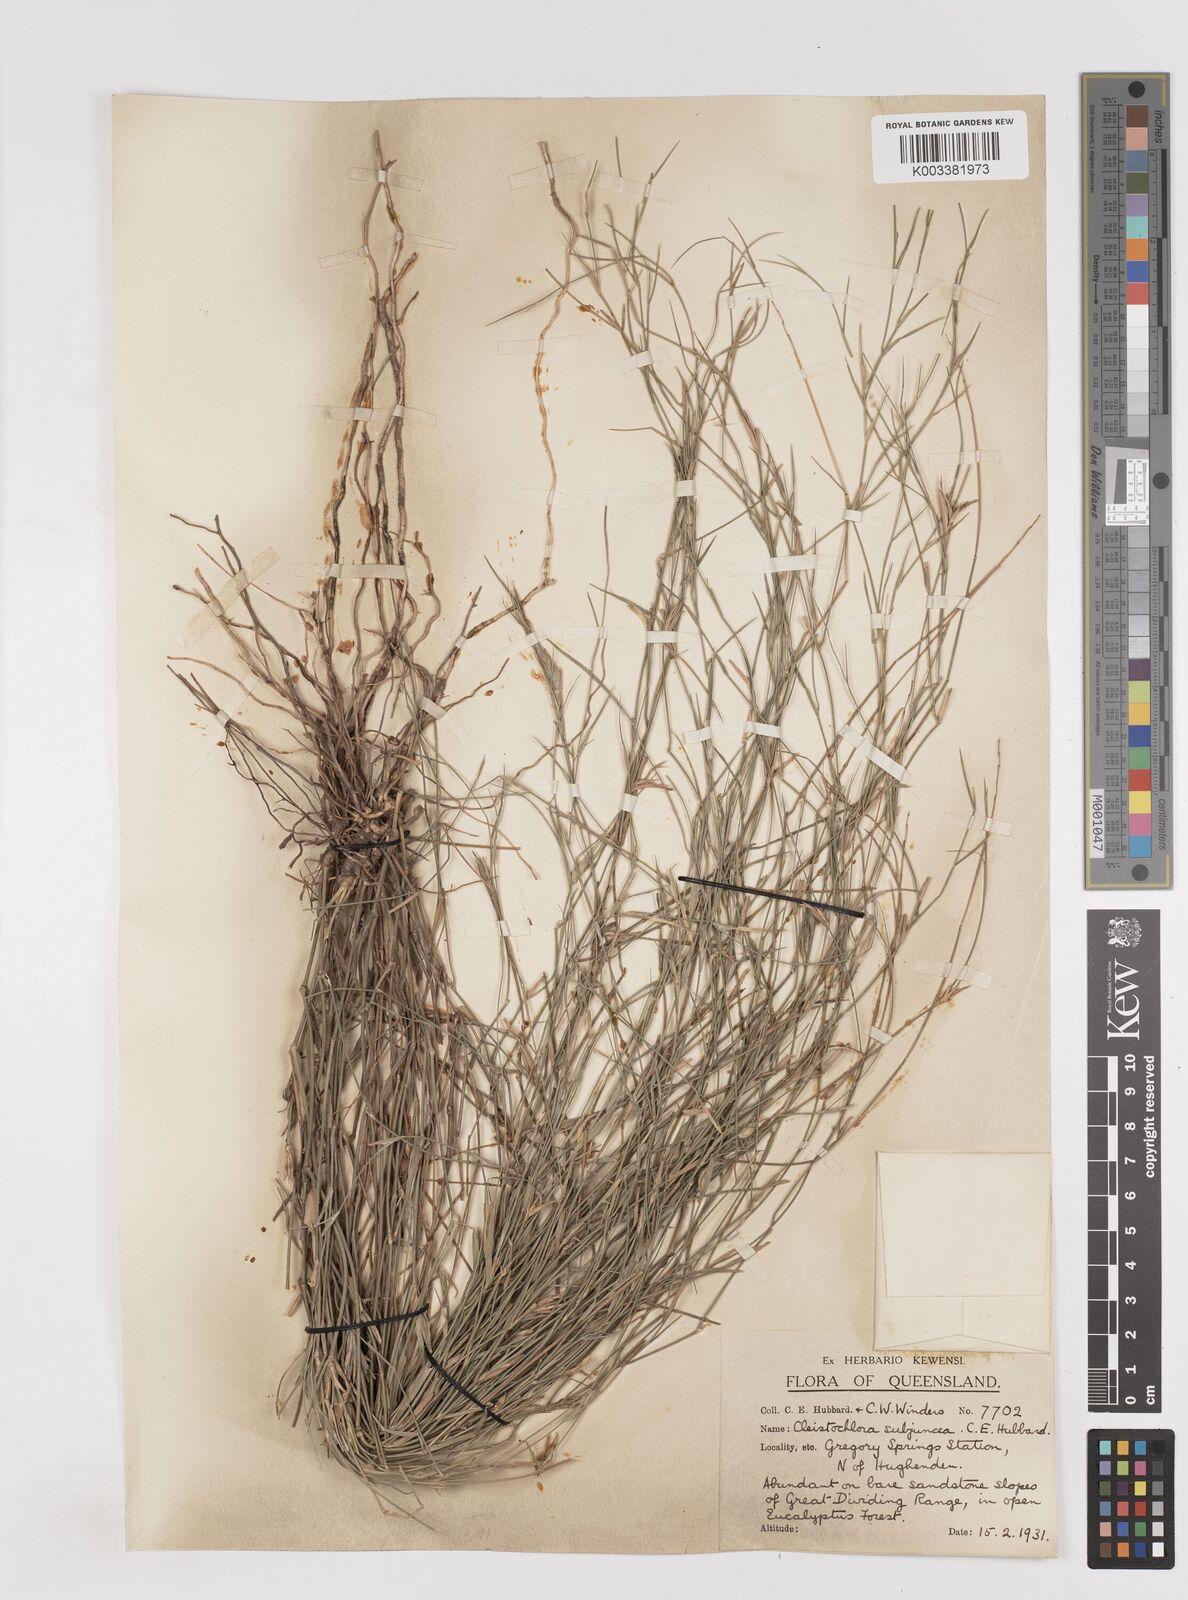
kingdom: Plantae
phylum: Tracheophyta
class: Liliopsida
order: Poales
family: Poaceae
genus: Cleistochloa
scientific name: Cleistochloa subjuncea
